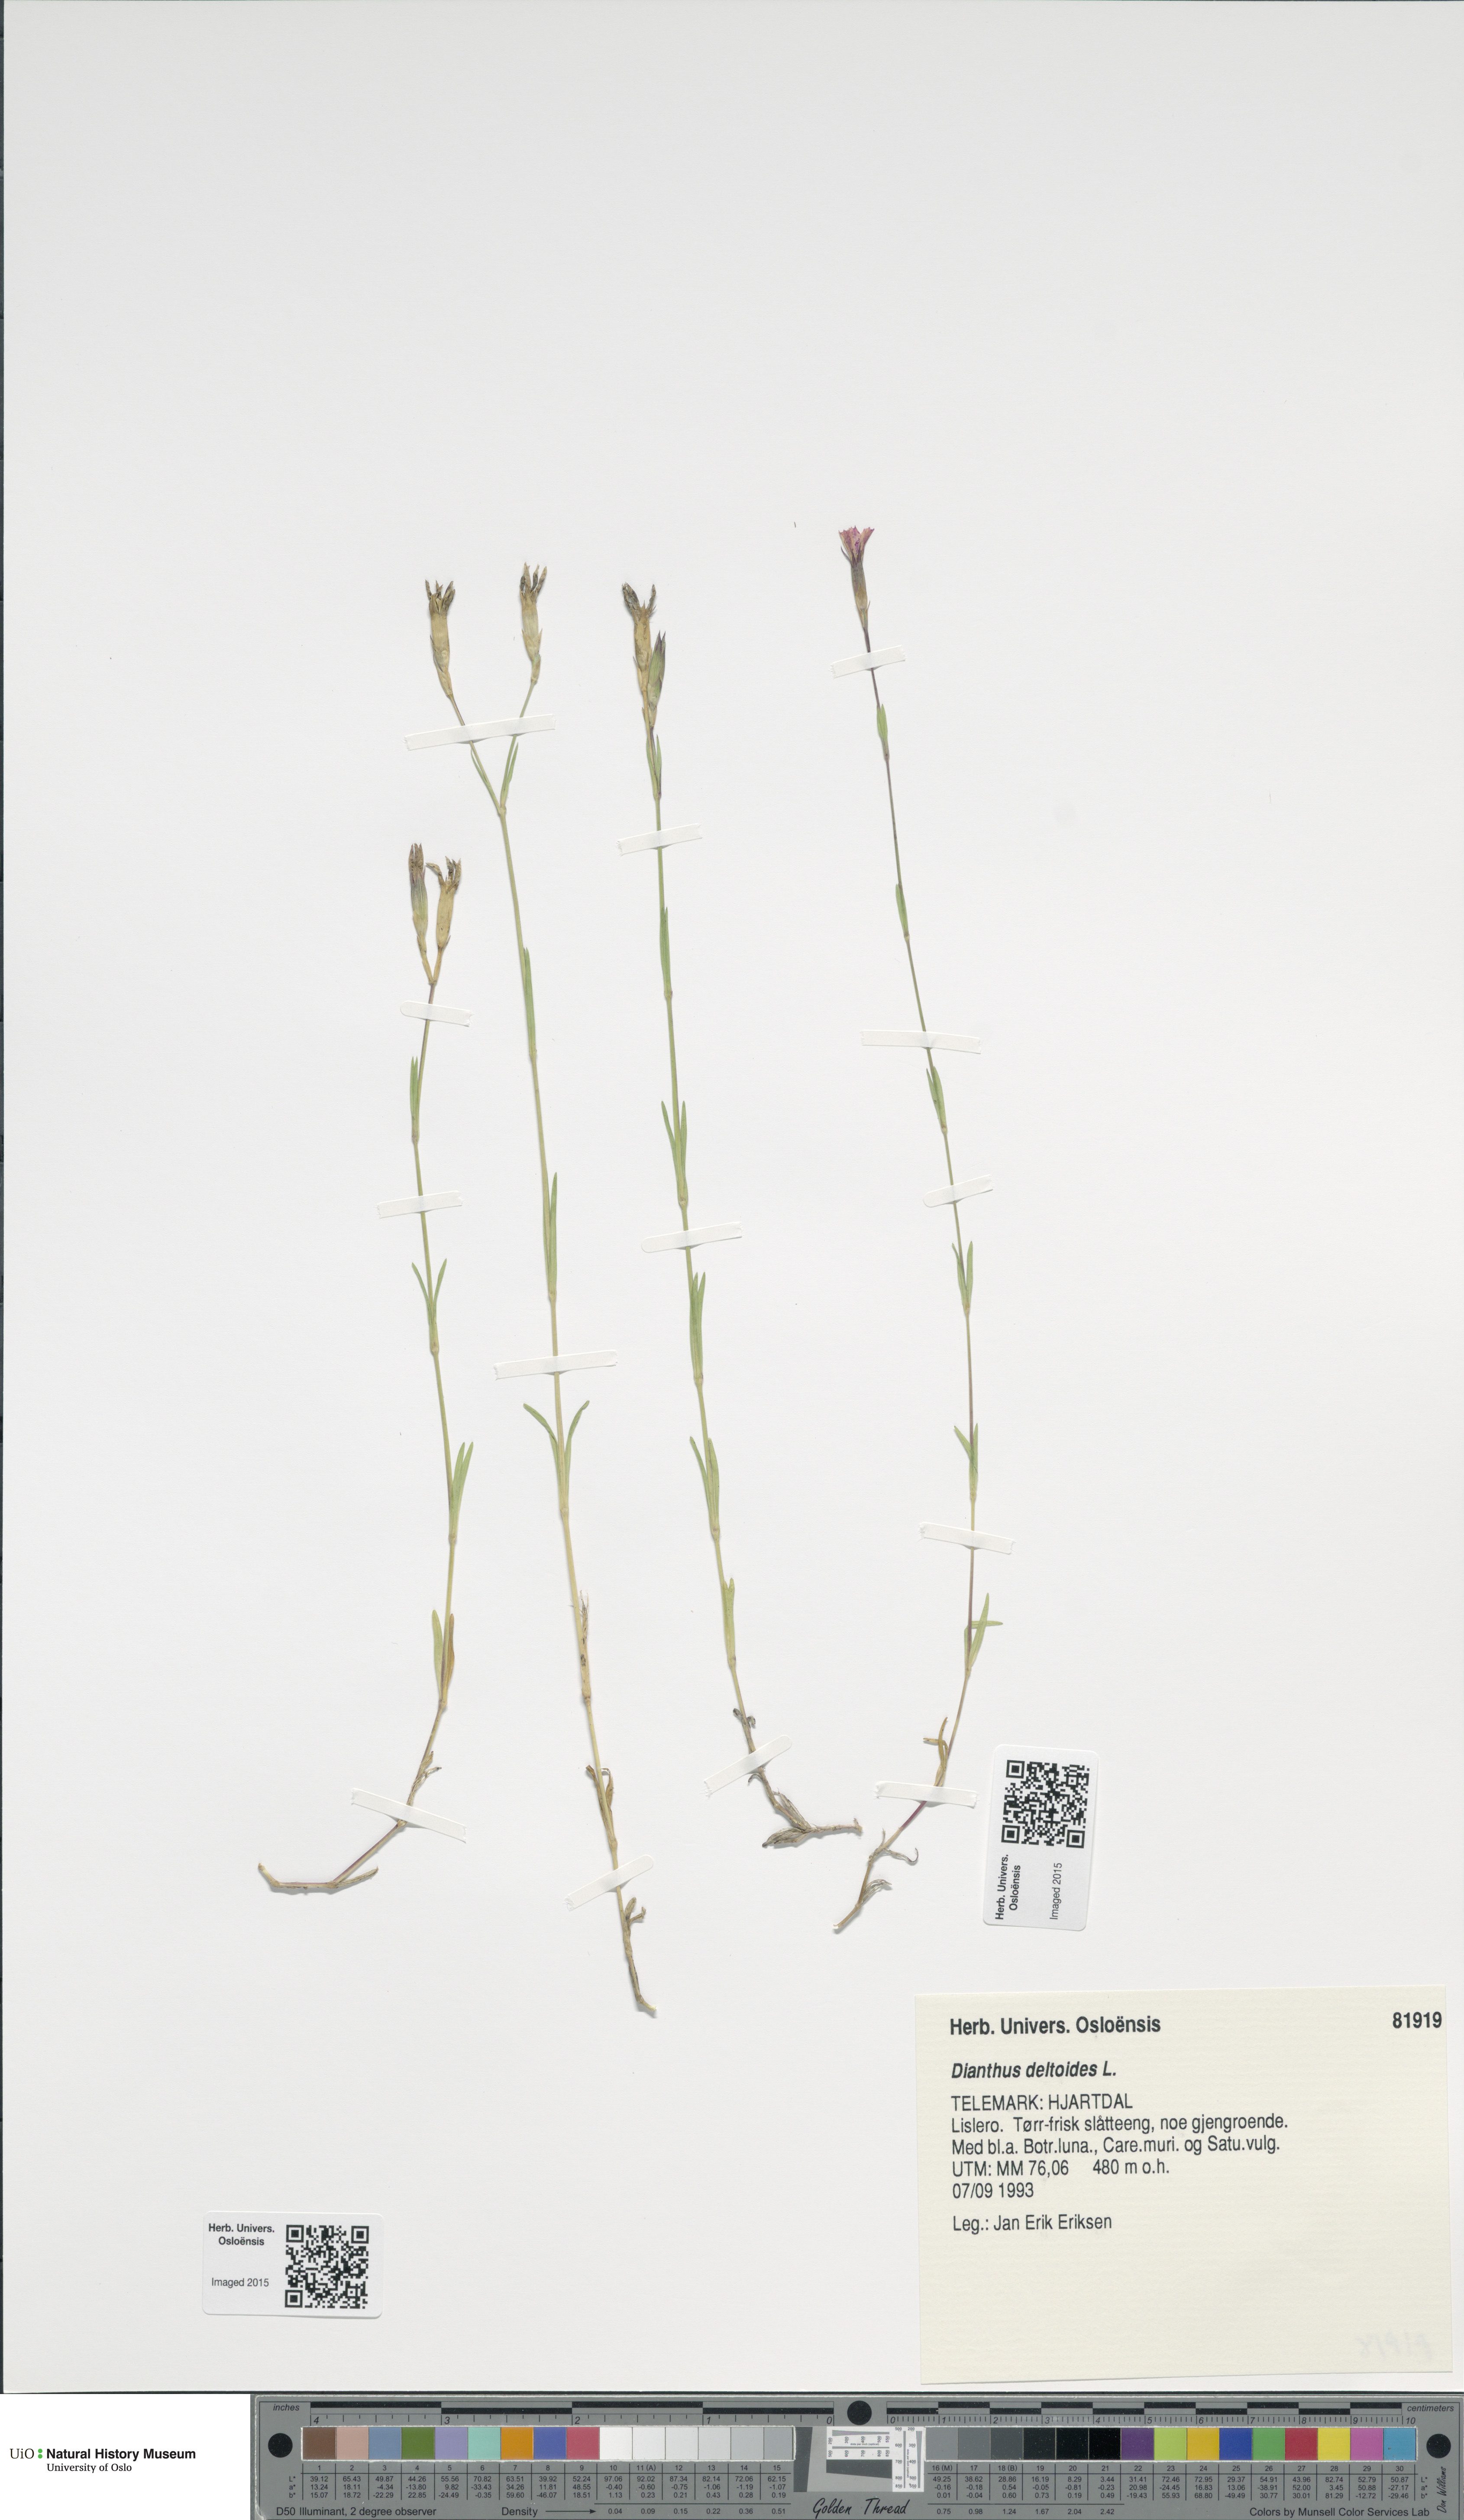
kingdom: Plantae
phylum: Tracheophyta
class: Magnoliopsida
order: Caryophyllales
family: Caryophyllaceae
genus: Dianthus
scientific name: Dianthus deltoides
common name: Maiden pink
